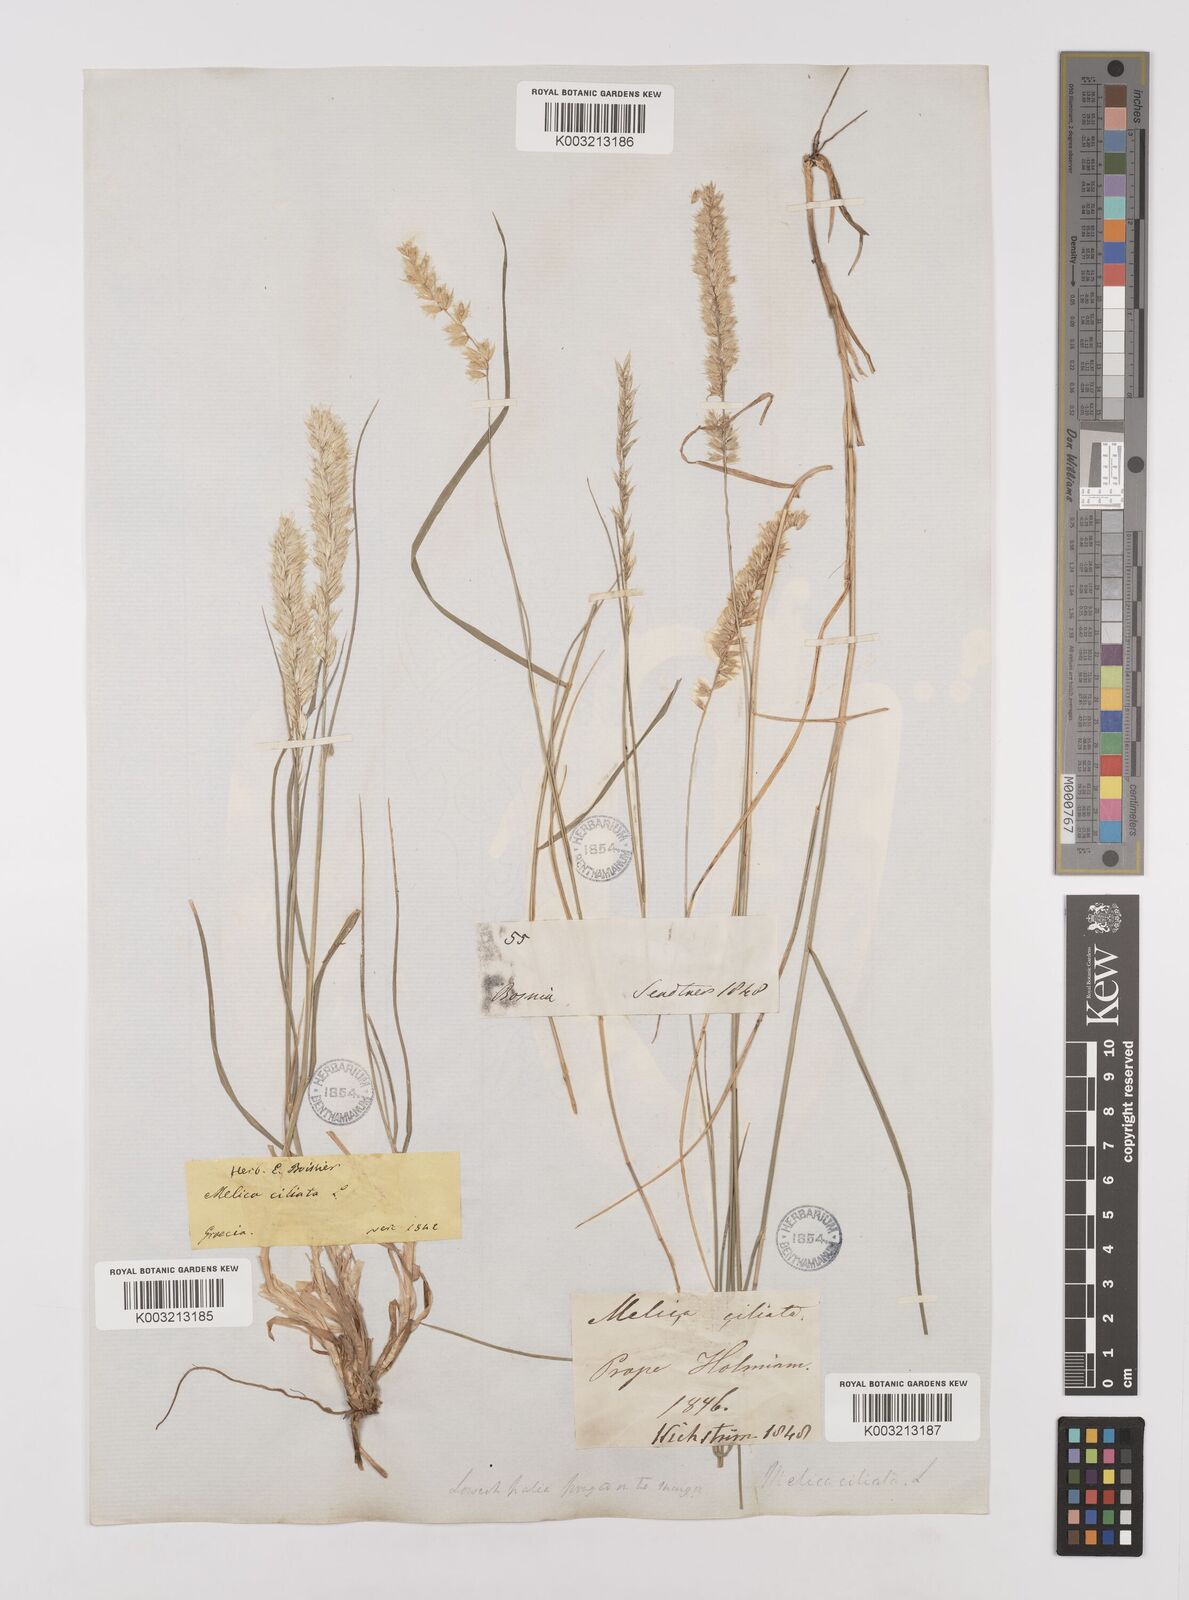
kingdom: Plantae
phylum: Tracheophyta
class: Liliopsida
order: Poales
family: Poaceae
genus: Melica
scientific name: Melica ciliata
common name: Hairy melicgrass
